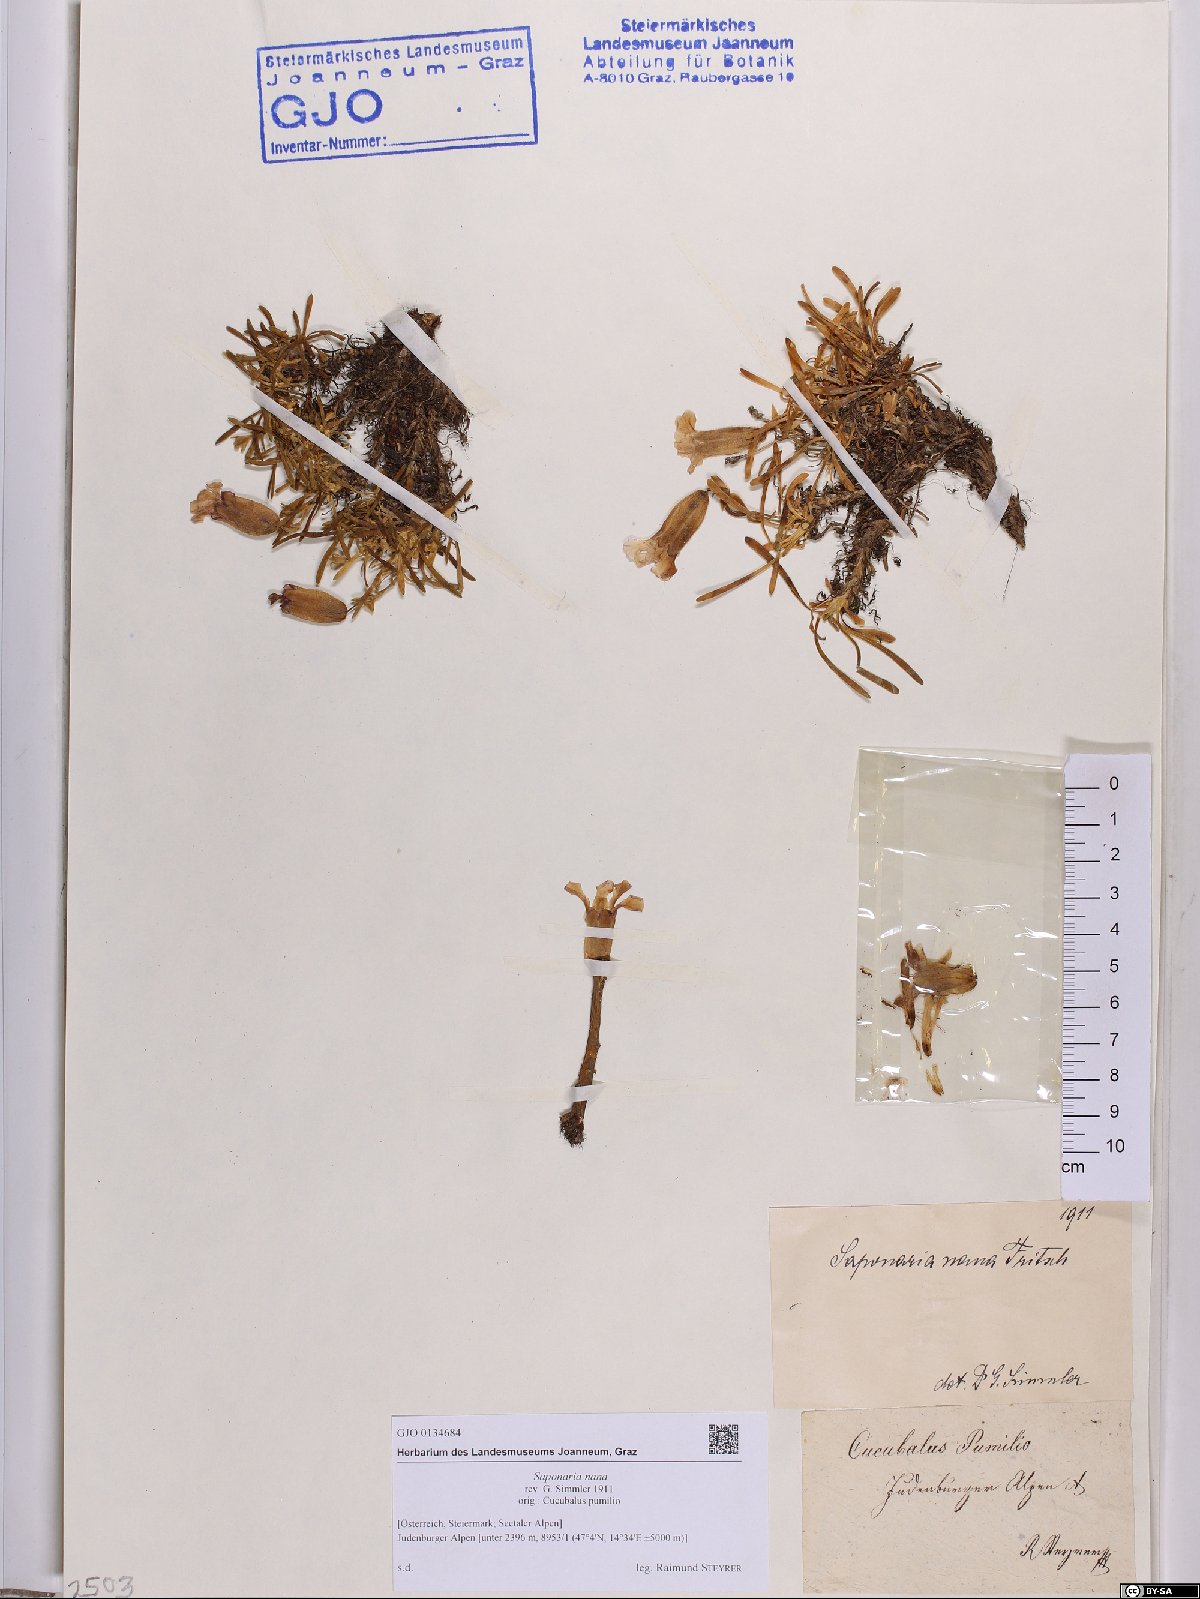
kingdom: Plantae
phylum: Tracheophyta
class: Magnoliopsida
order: Caryophyllales
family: Caryophyllaceae
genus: Saponaria
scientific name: Saponaria pumila
